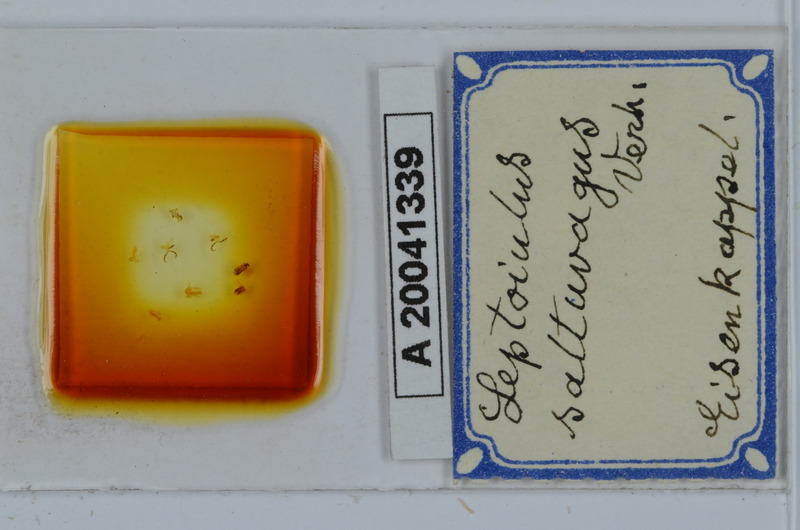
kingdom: Animalia
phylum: Arthropoda
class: Diplopoda
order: Julida
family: Julidae
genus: Leptoiulus
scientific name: Leptoiulus saltuvagus
